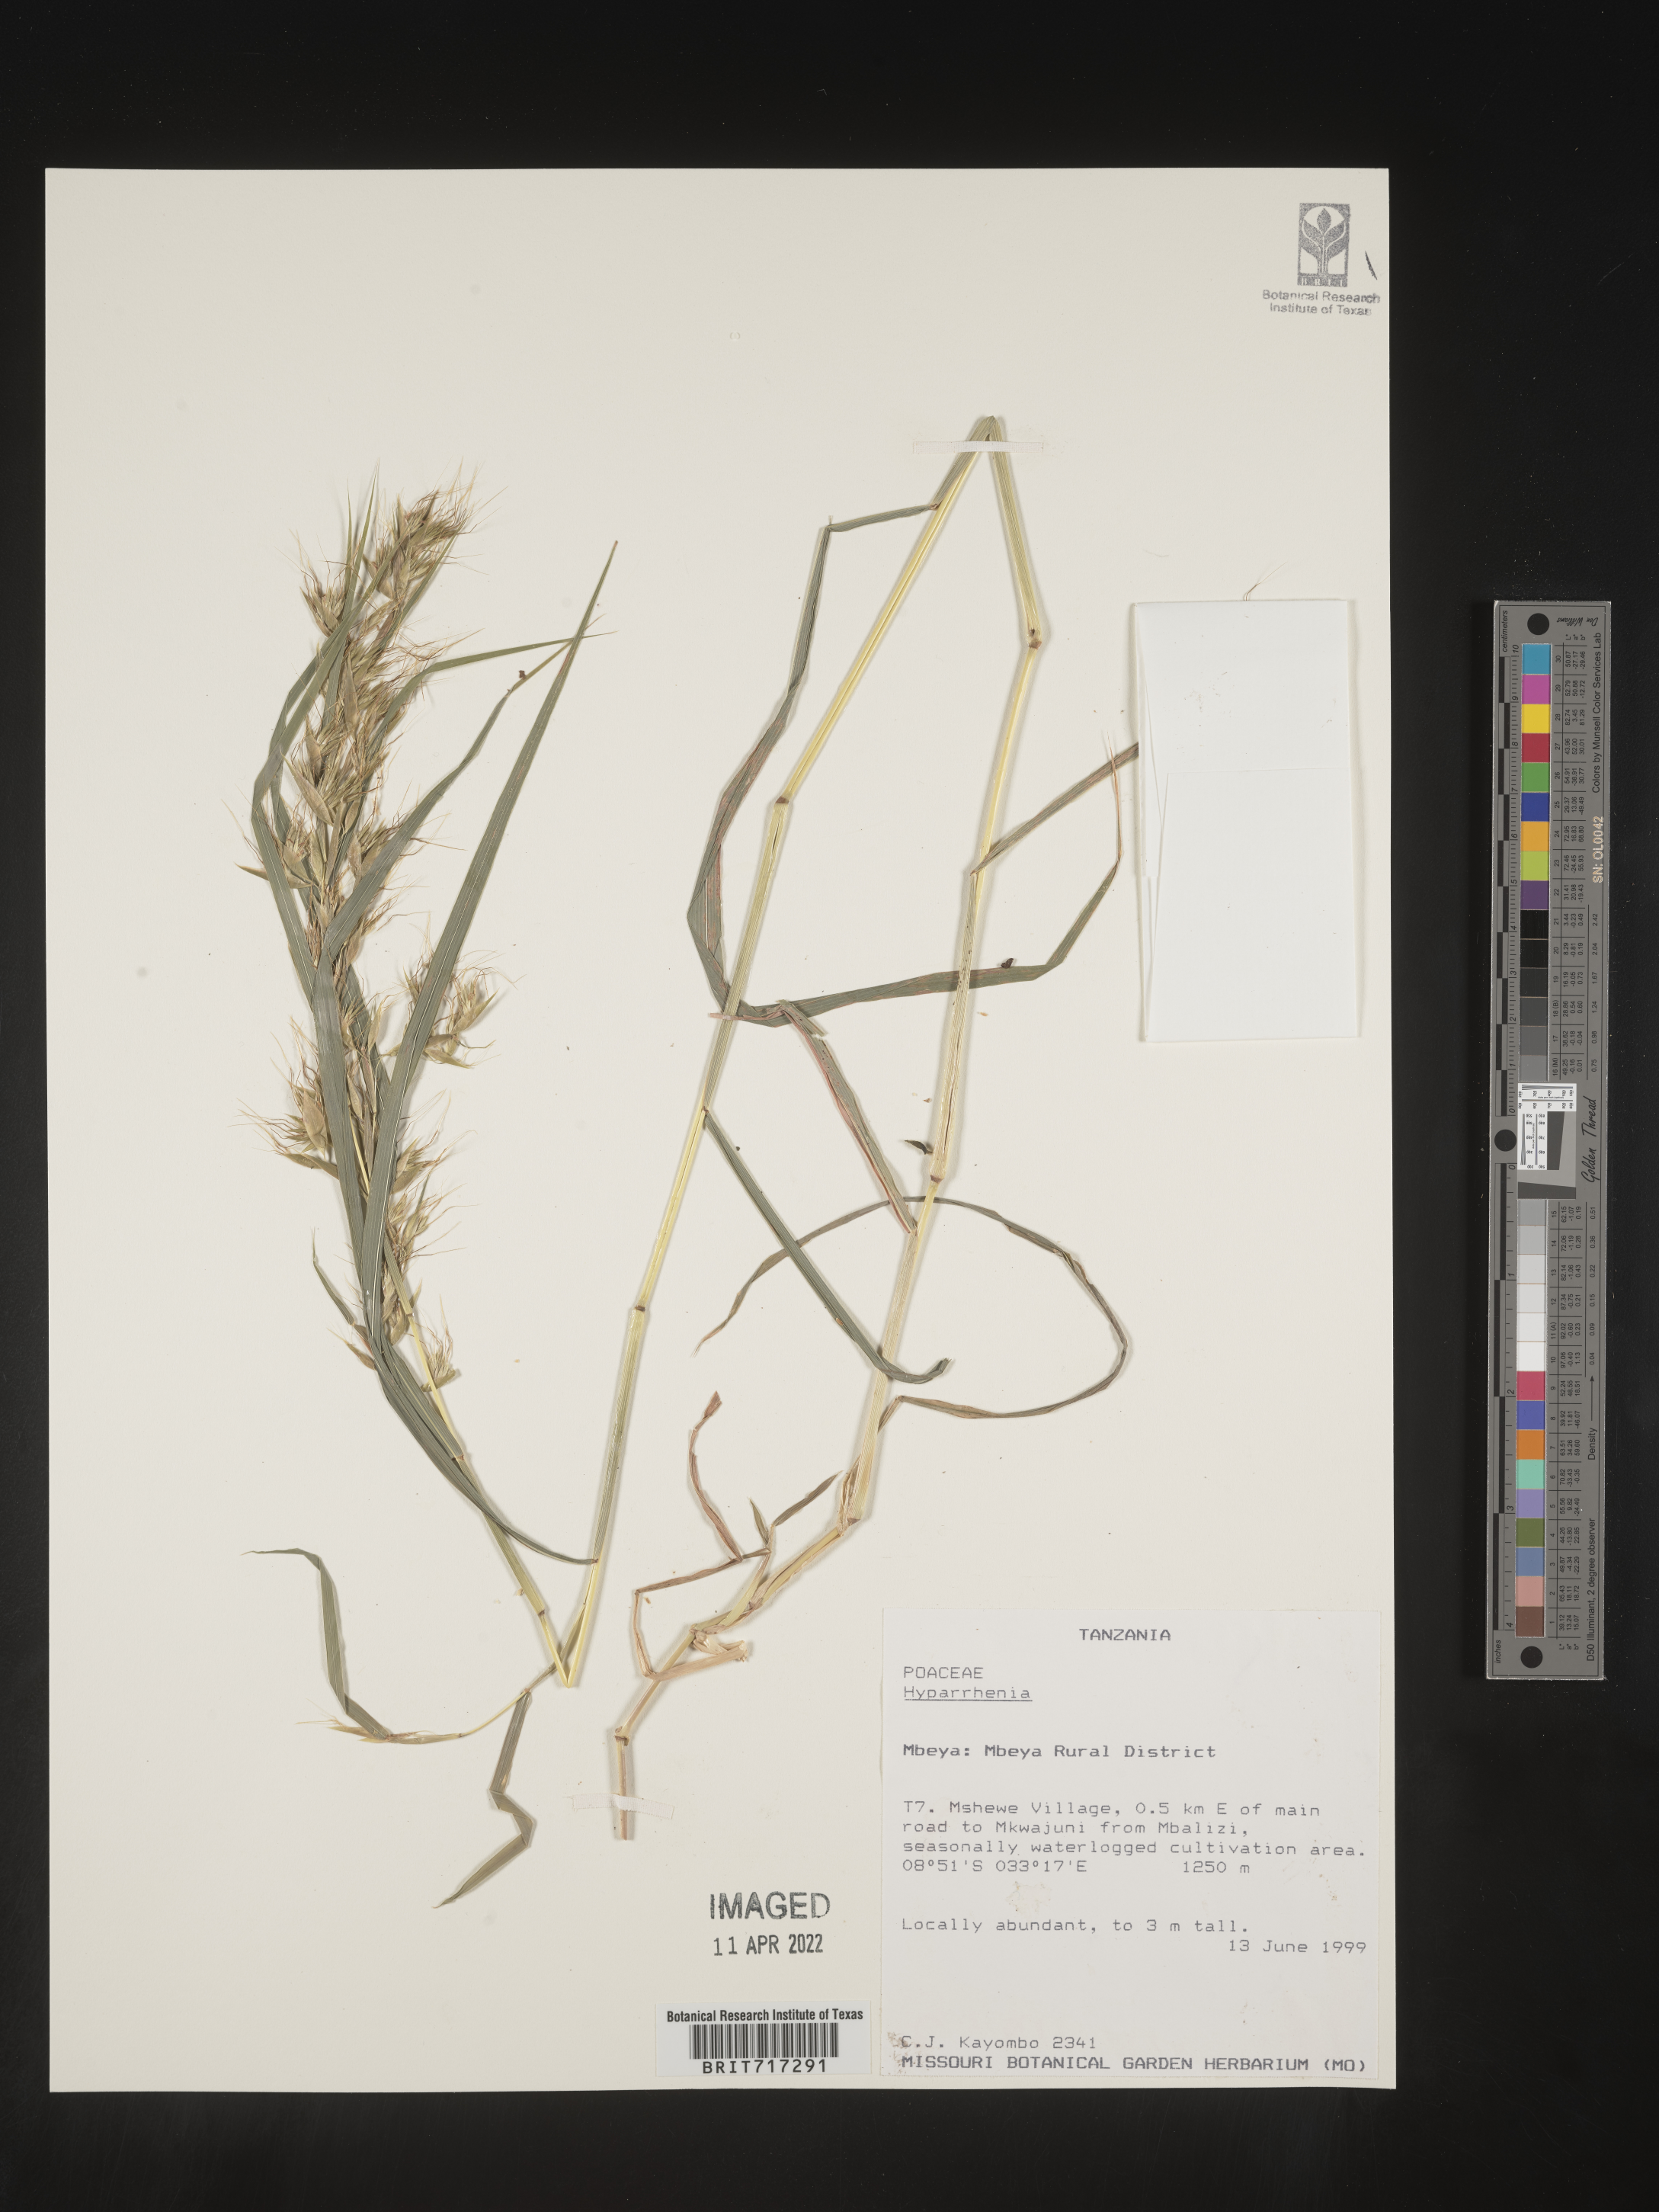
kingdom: Plantae
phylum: Tracheophyta
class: Liliopsida
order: Poales
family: Poaceae
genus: Hyparrhenia
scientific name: Hyparrhenia
